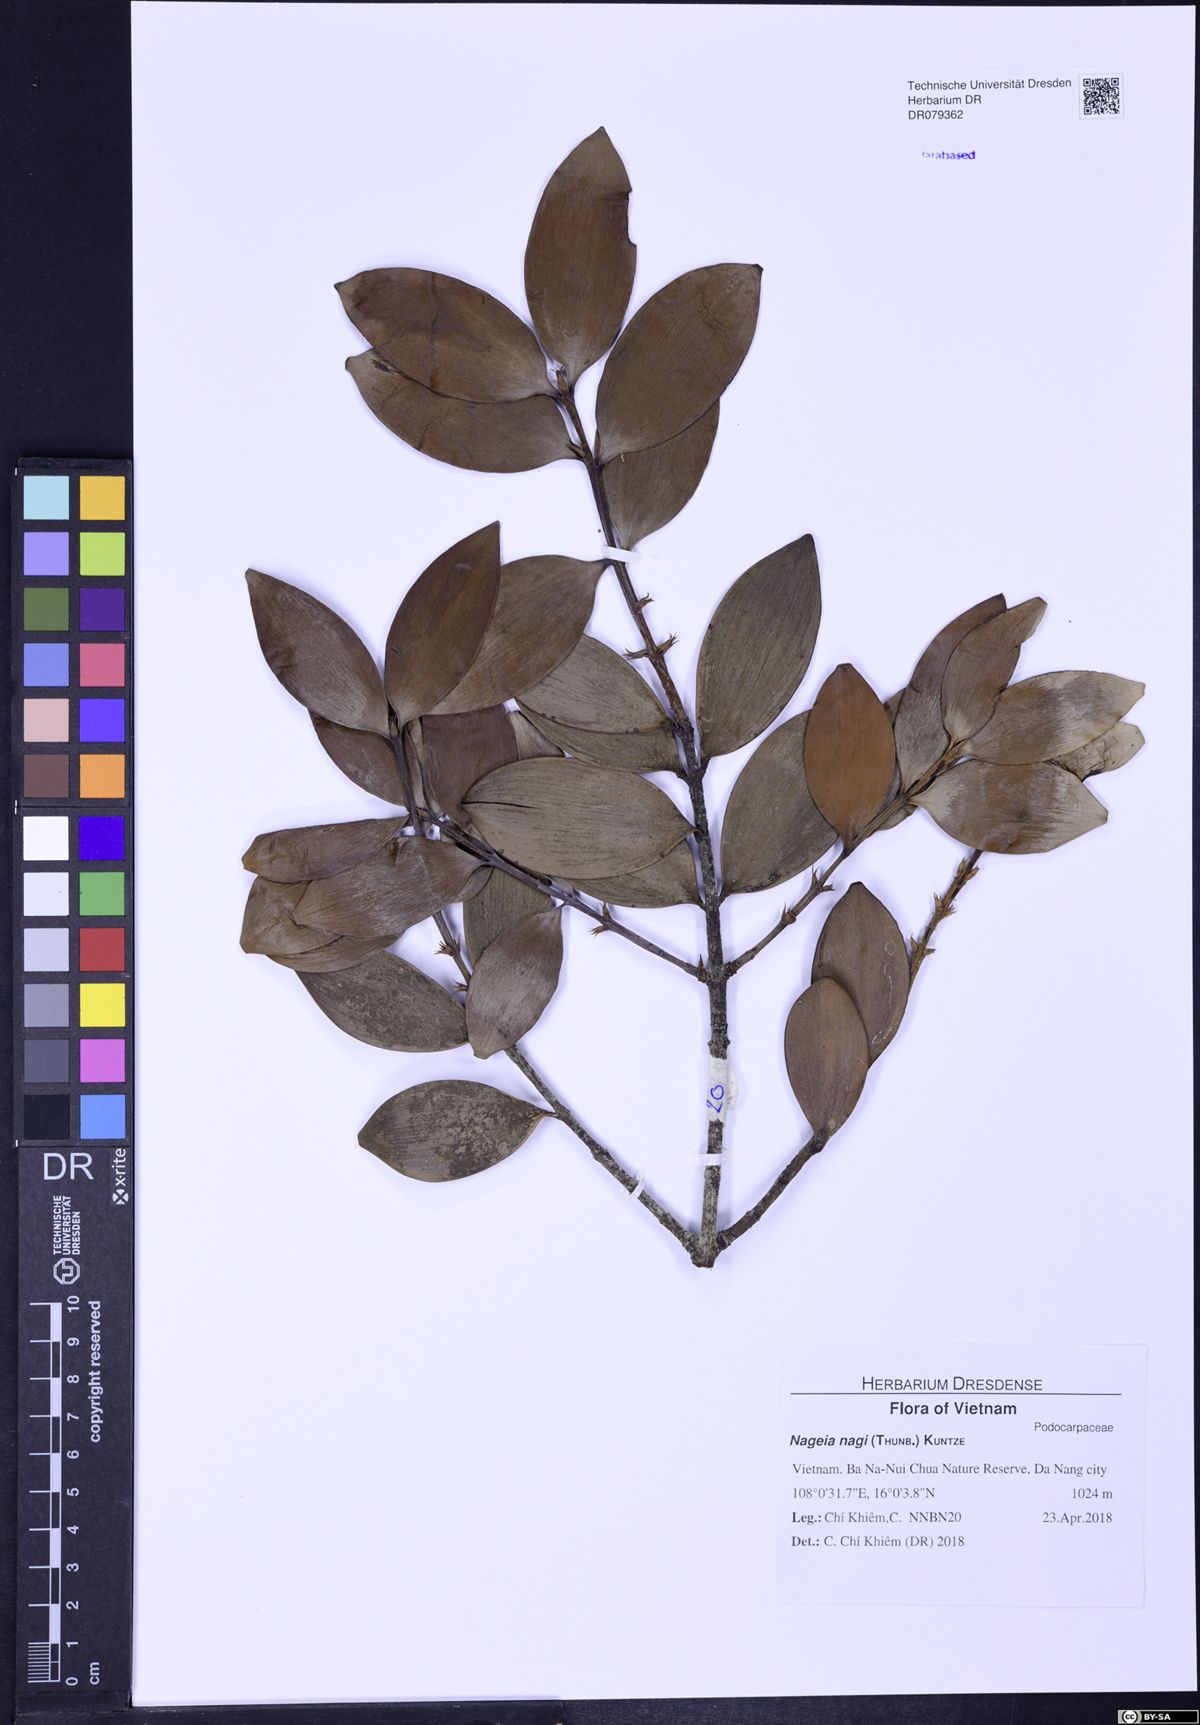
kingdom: Plantae
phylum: Tracheophyta
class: Pinopsida
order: Pinales
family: Podocarpaceae
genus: Nageia
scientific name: Nageia nagi
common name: Kaphal
